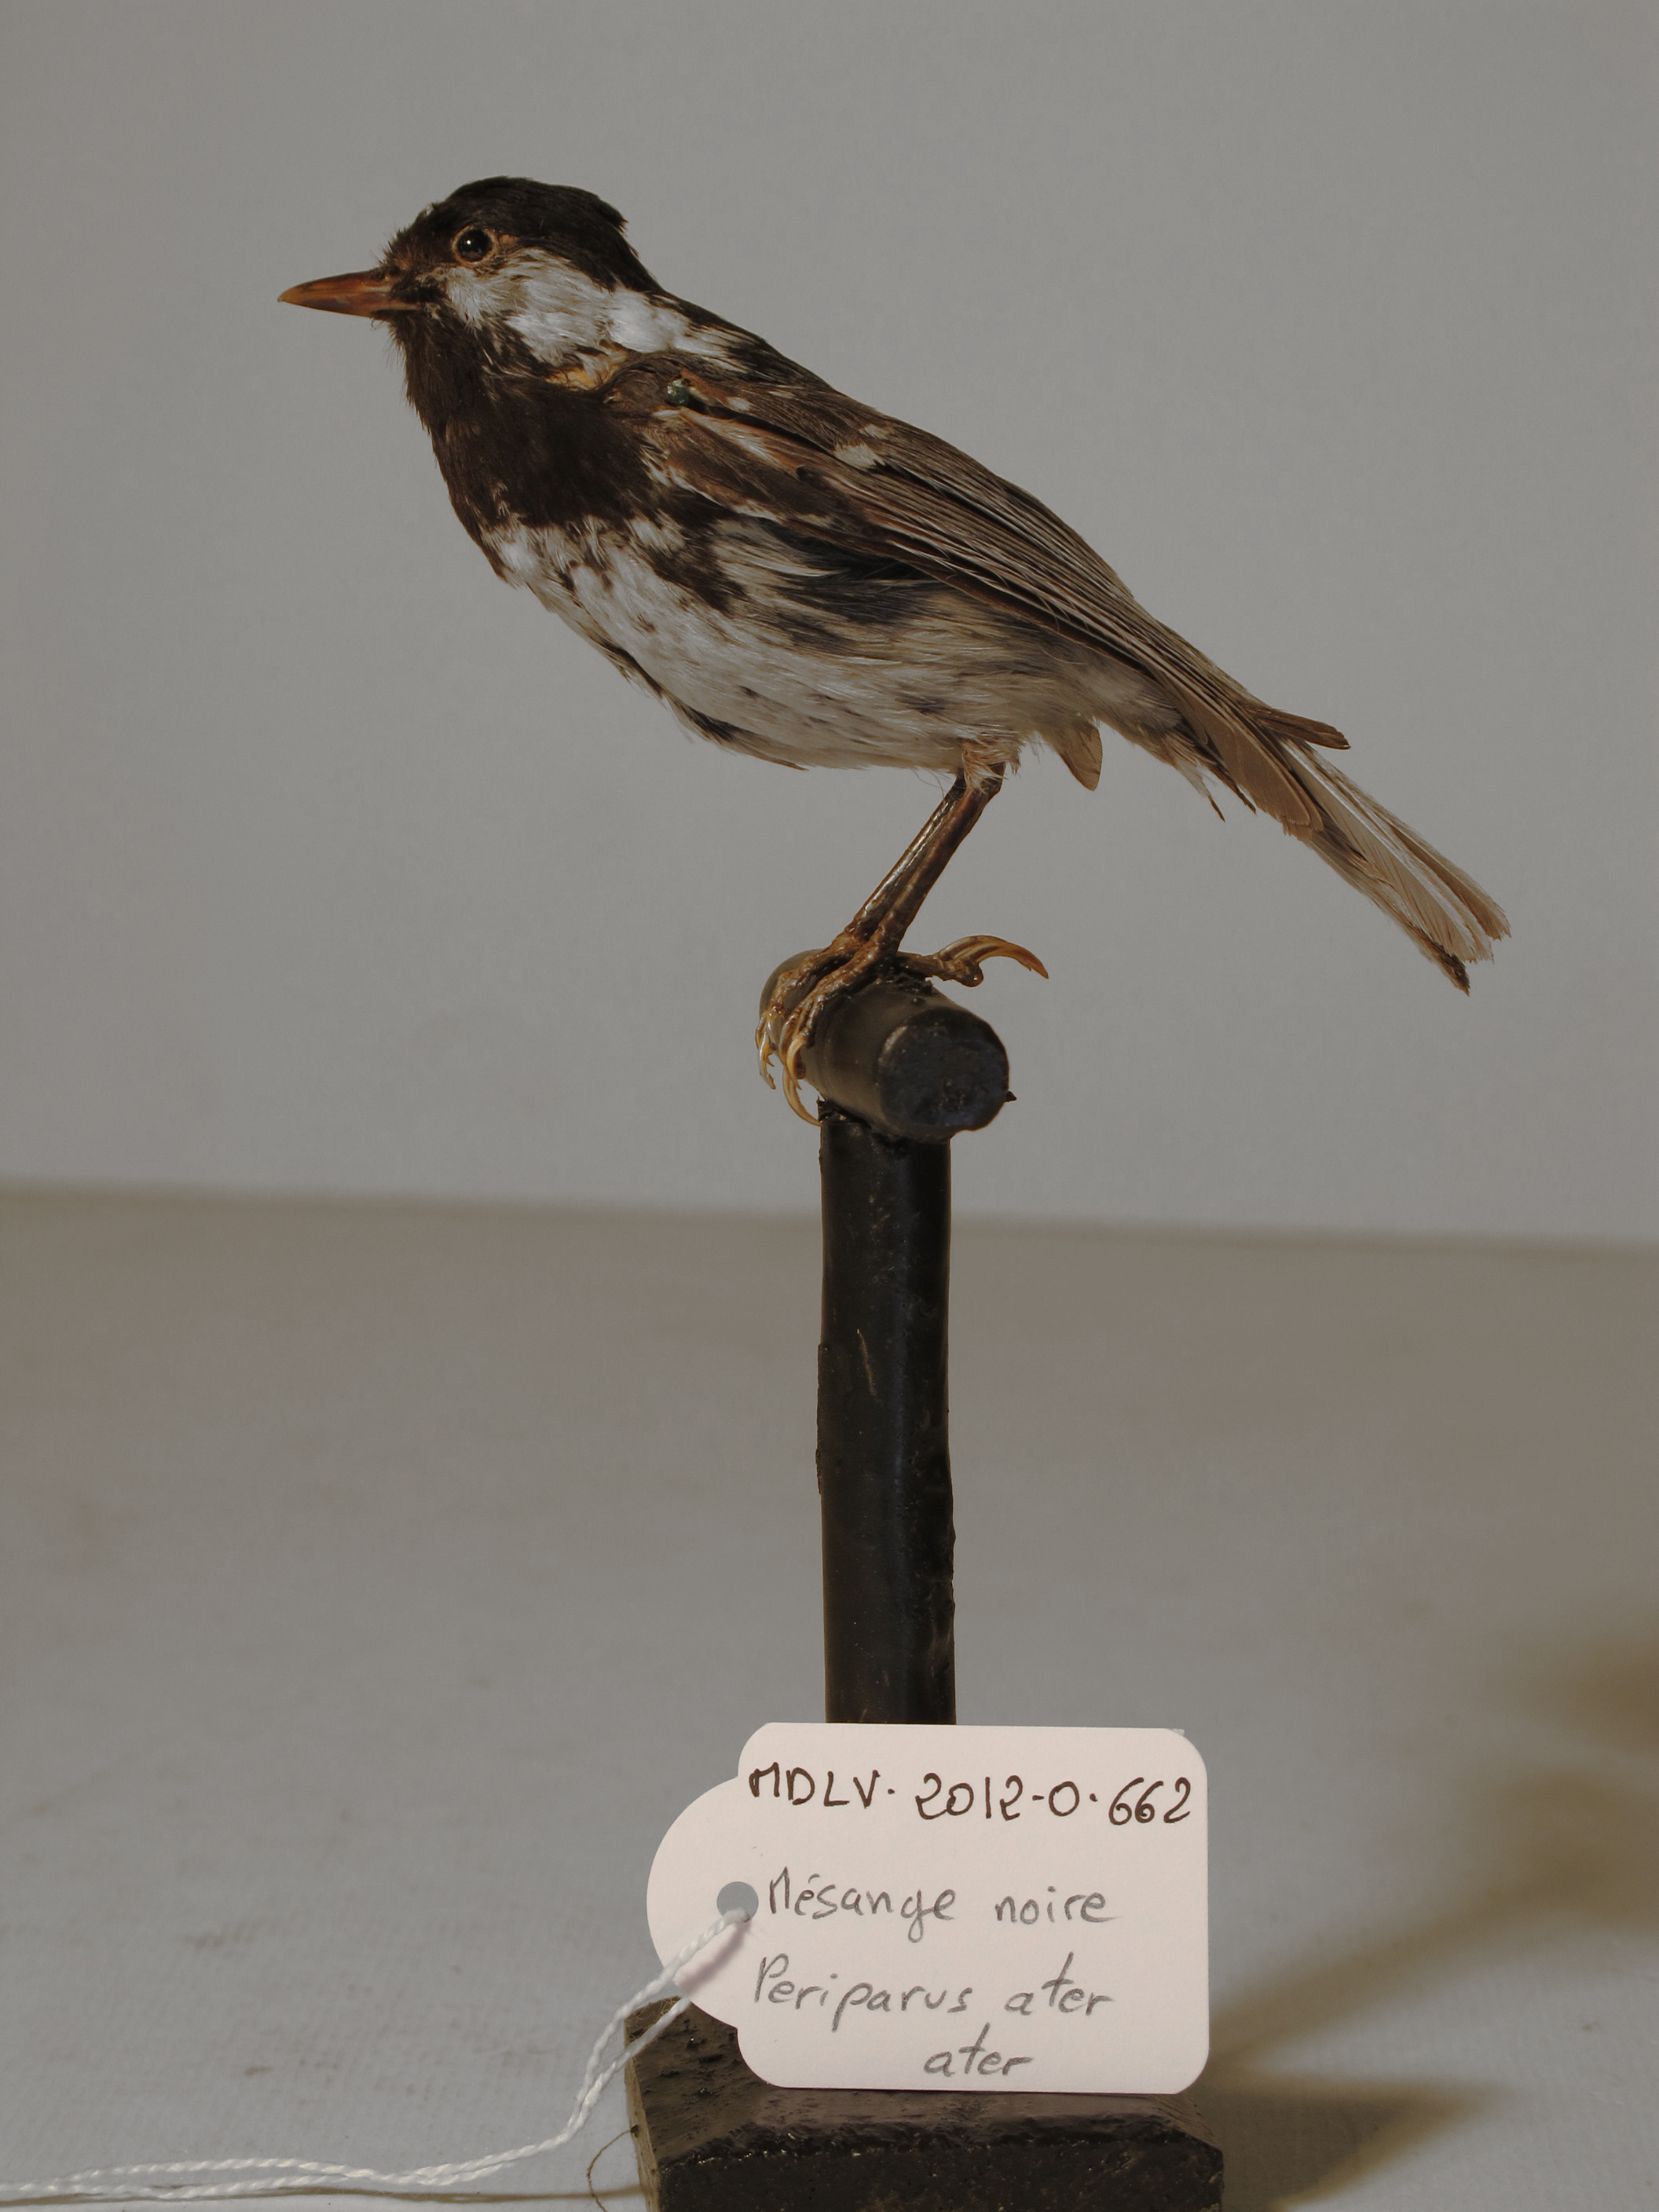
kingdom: Animalia
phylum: Chordata
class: Aves
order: Passeriformes
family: Paridae
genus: Periparus
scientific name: Periparus ater
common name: Coal Tit
